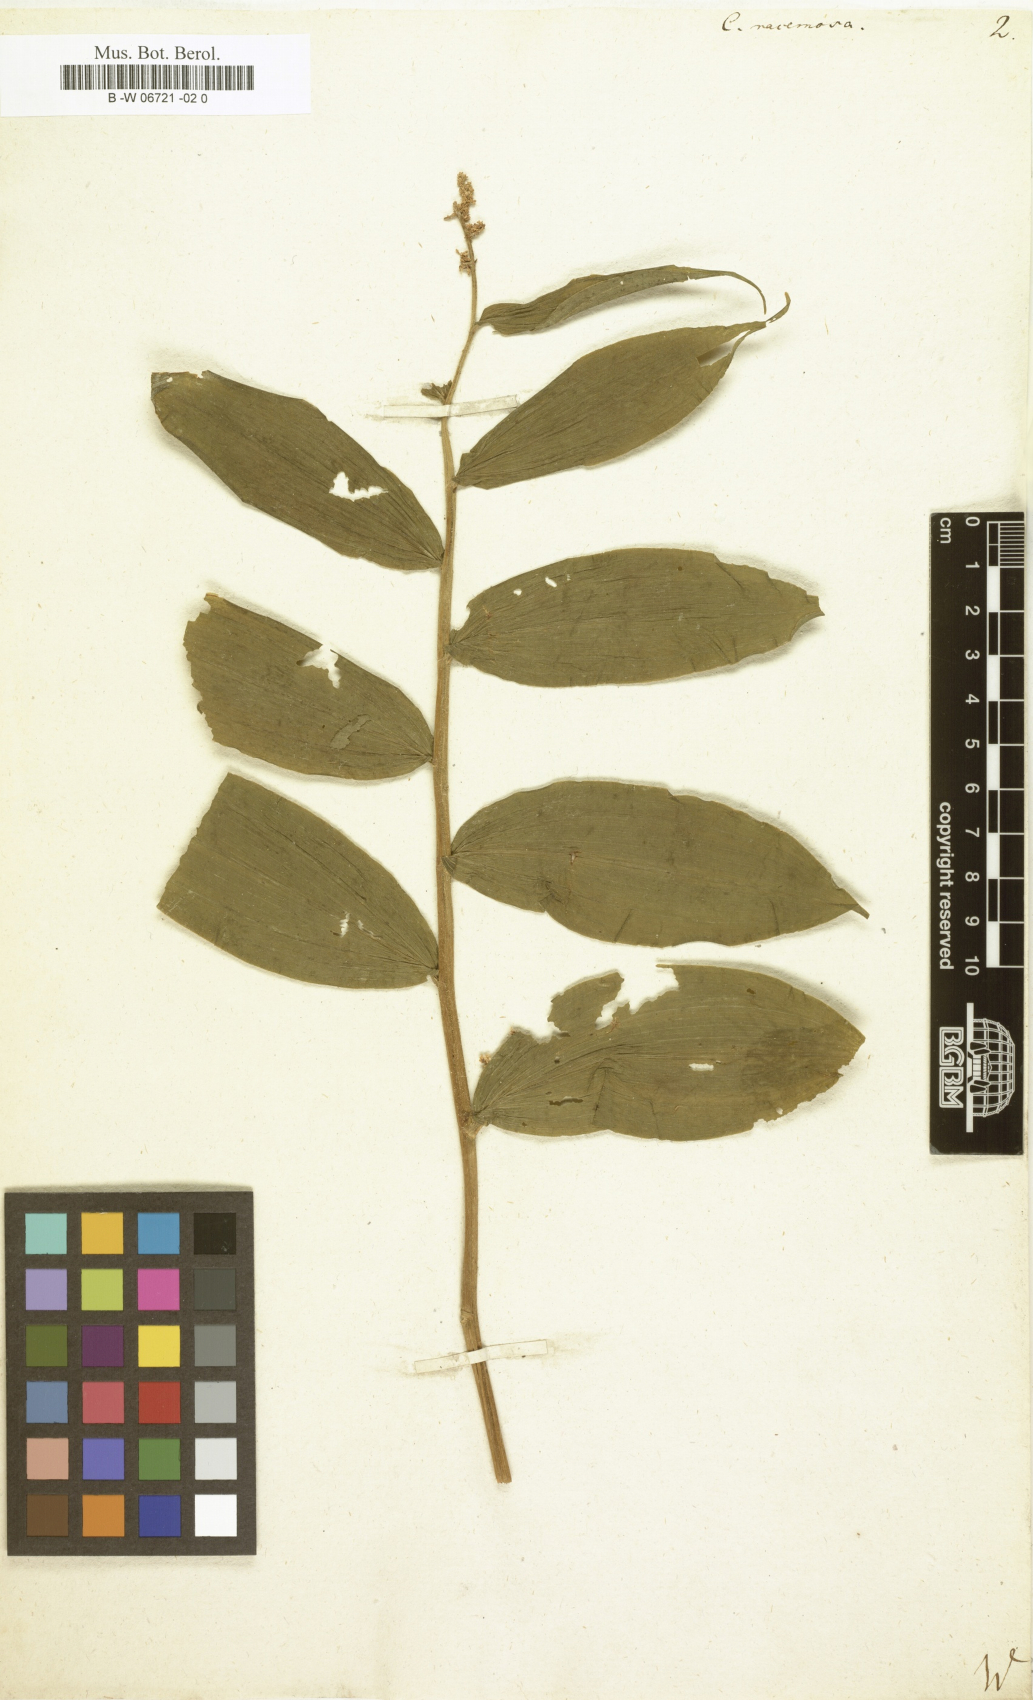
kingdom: Plantae
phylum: Tracheophyta
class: Liliopsida
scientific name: Liliopsida
